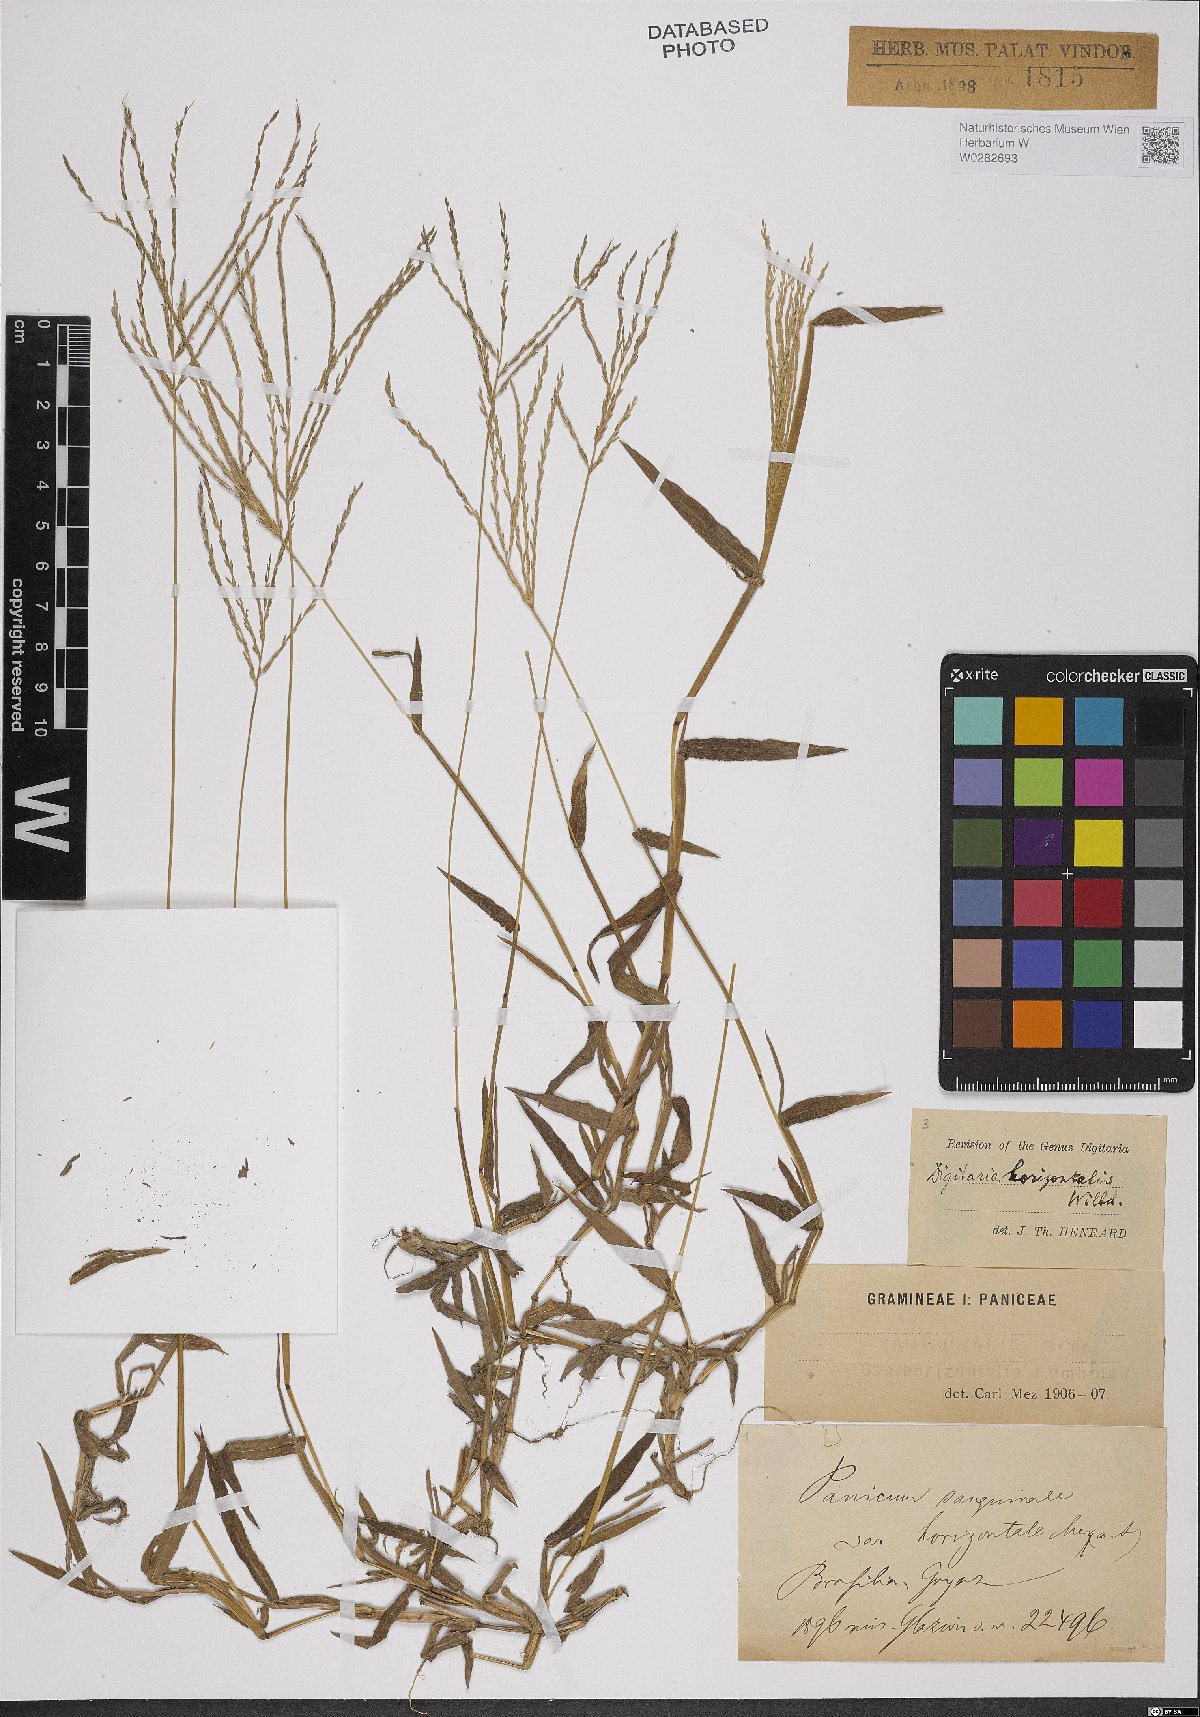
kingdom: Plantae
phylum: Tracheophyta
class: Liliopsida
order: Poales
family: Poaceae
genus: Digitaria
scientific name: Digitaria horizontalis
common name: Jamaican crabgrass
